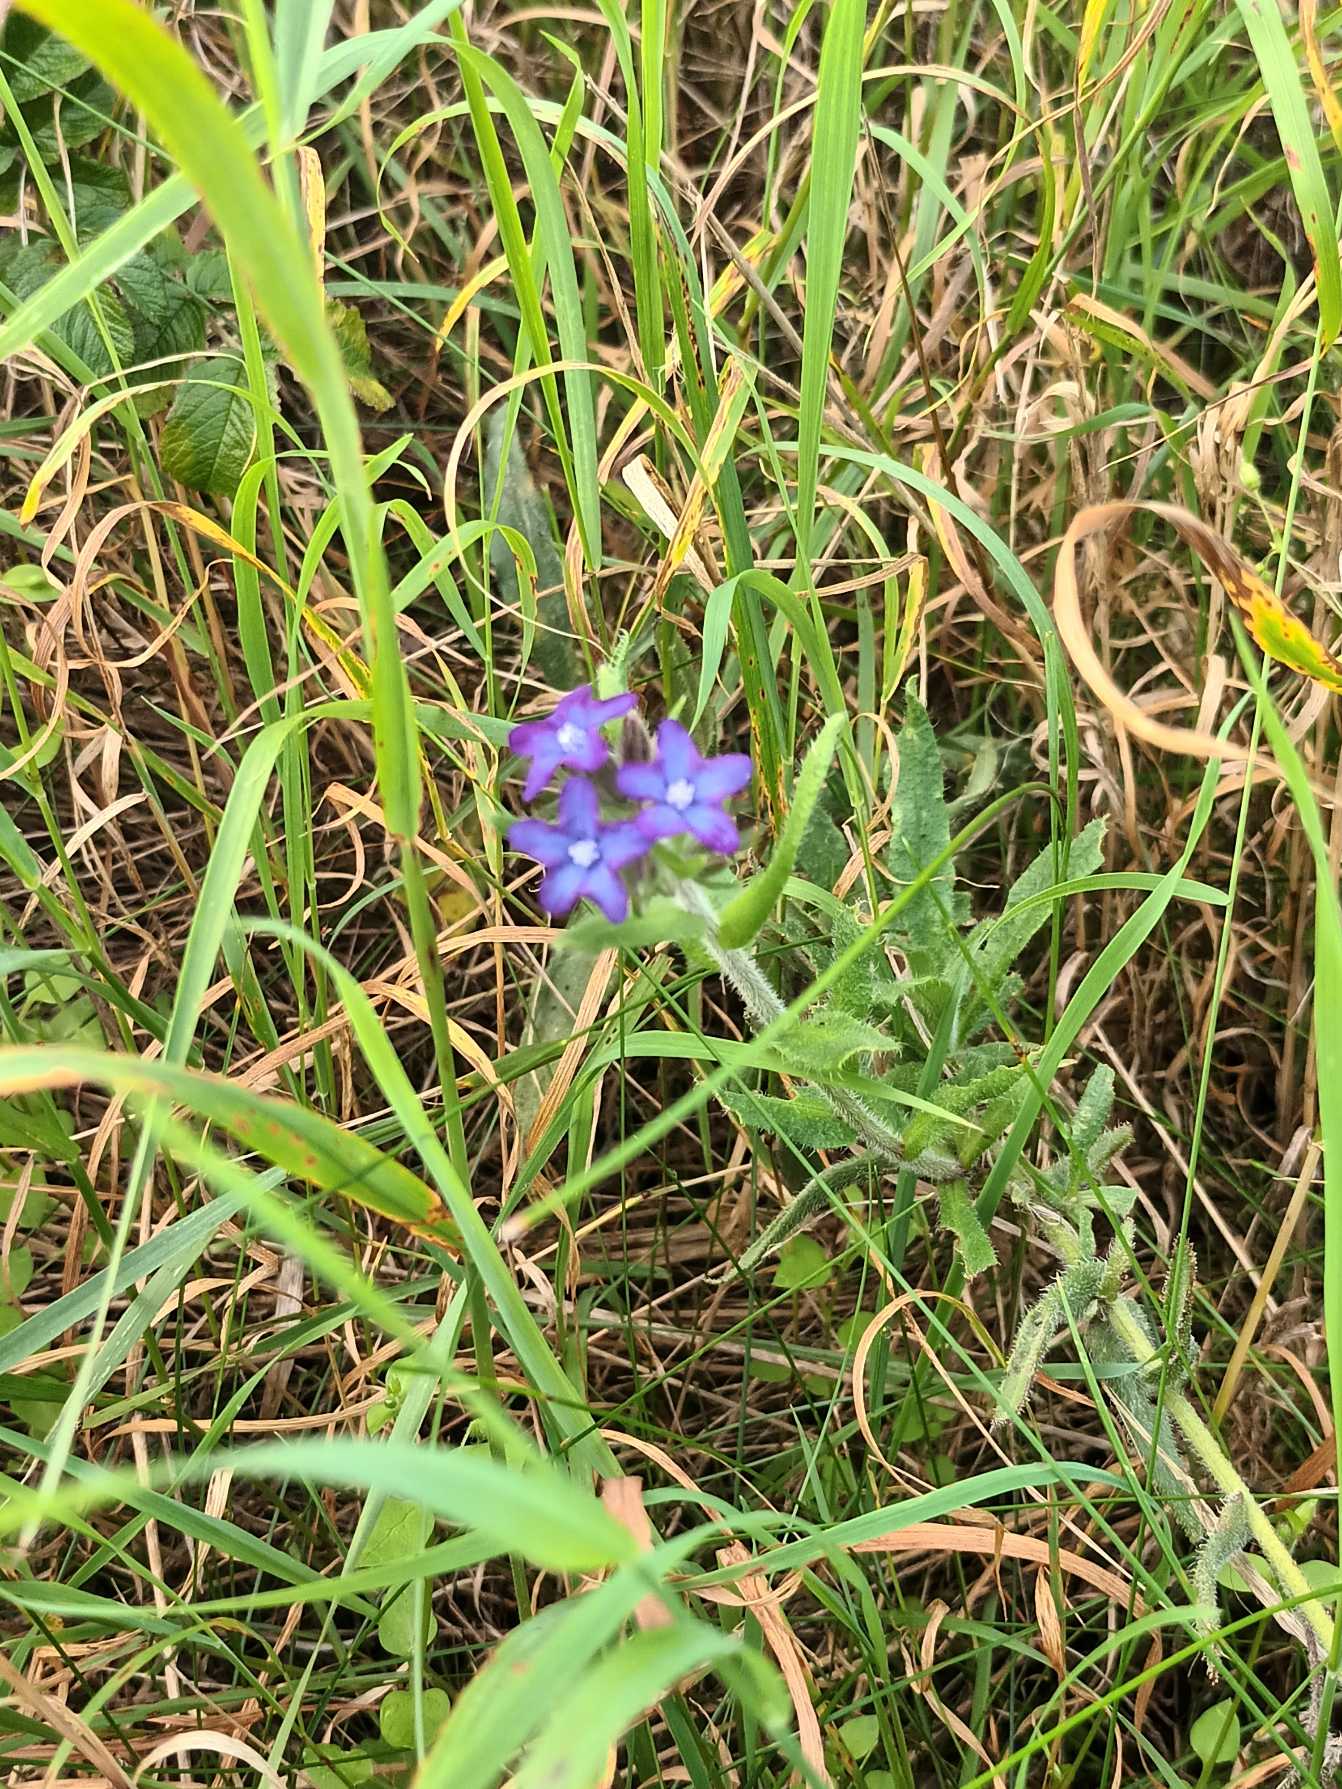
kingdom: Plantae
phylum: Tracheophyta
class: Magnoliopsida
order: Boraginales
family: Boraginaceae
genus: Anchusa
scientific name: Anchusa officinalis
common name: Læge-oksetunge
